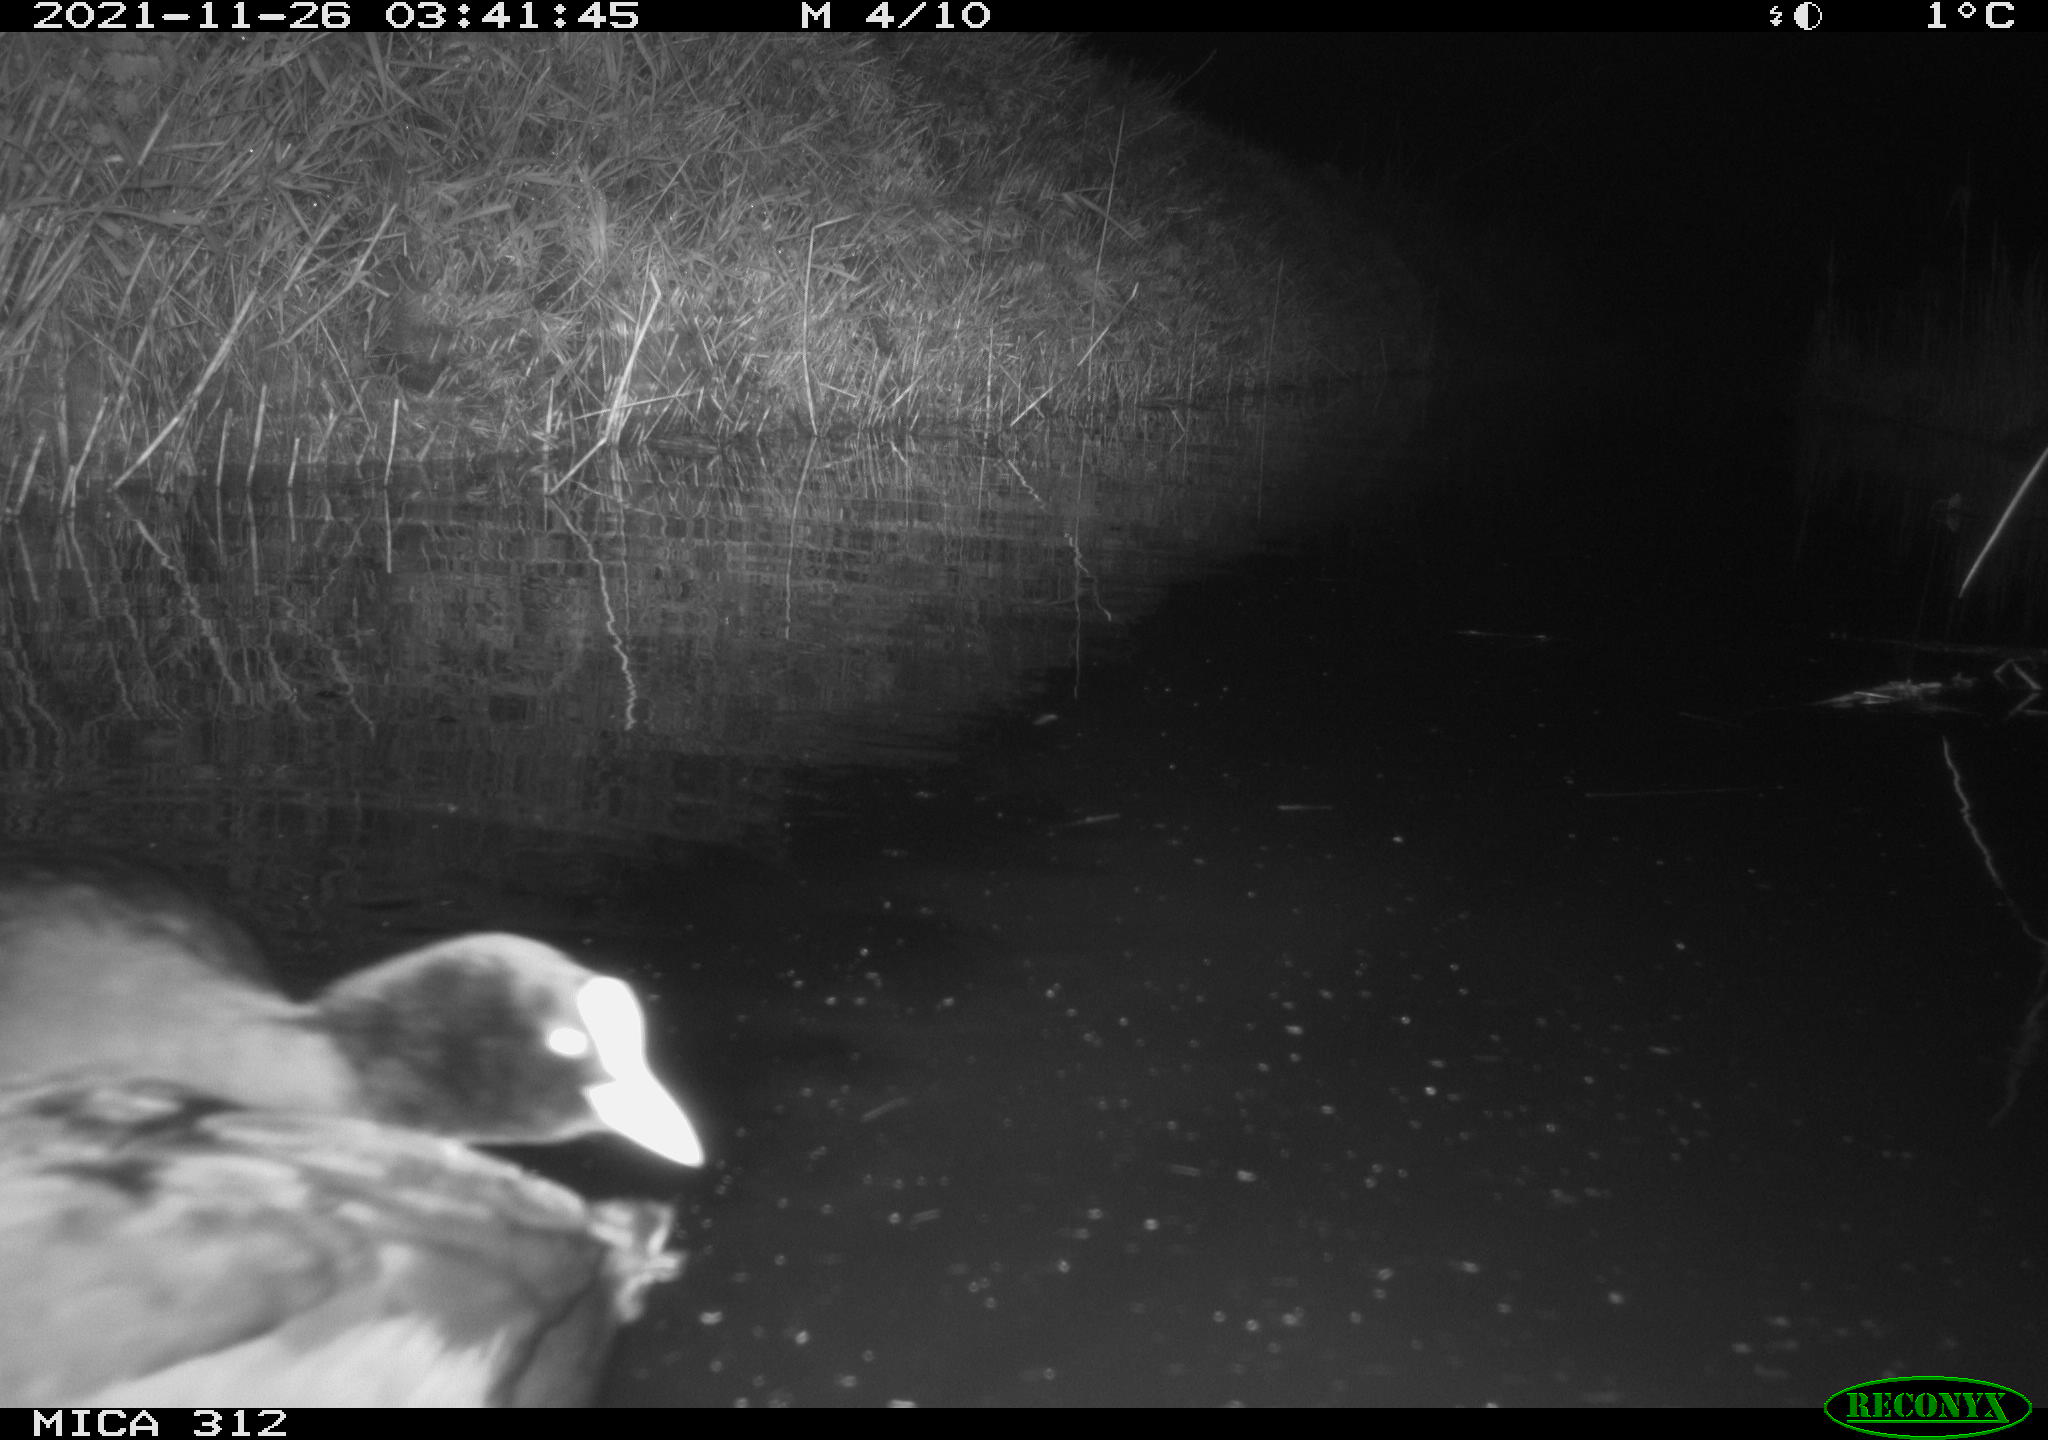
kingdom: Animalia
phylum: Chordata
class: Aves
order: Gruiformes
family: Rallidae
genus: Fulica
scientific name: Fulica atra
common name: Eurasian coot
